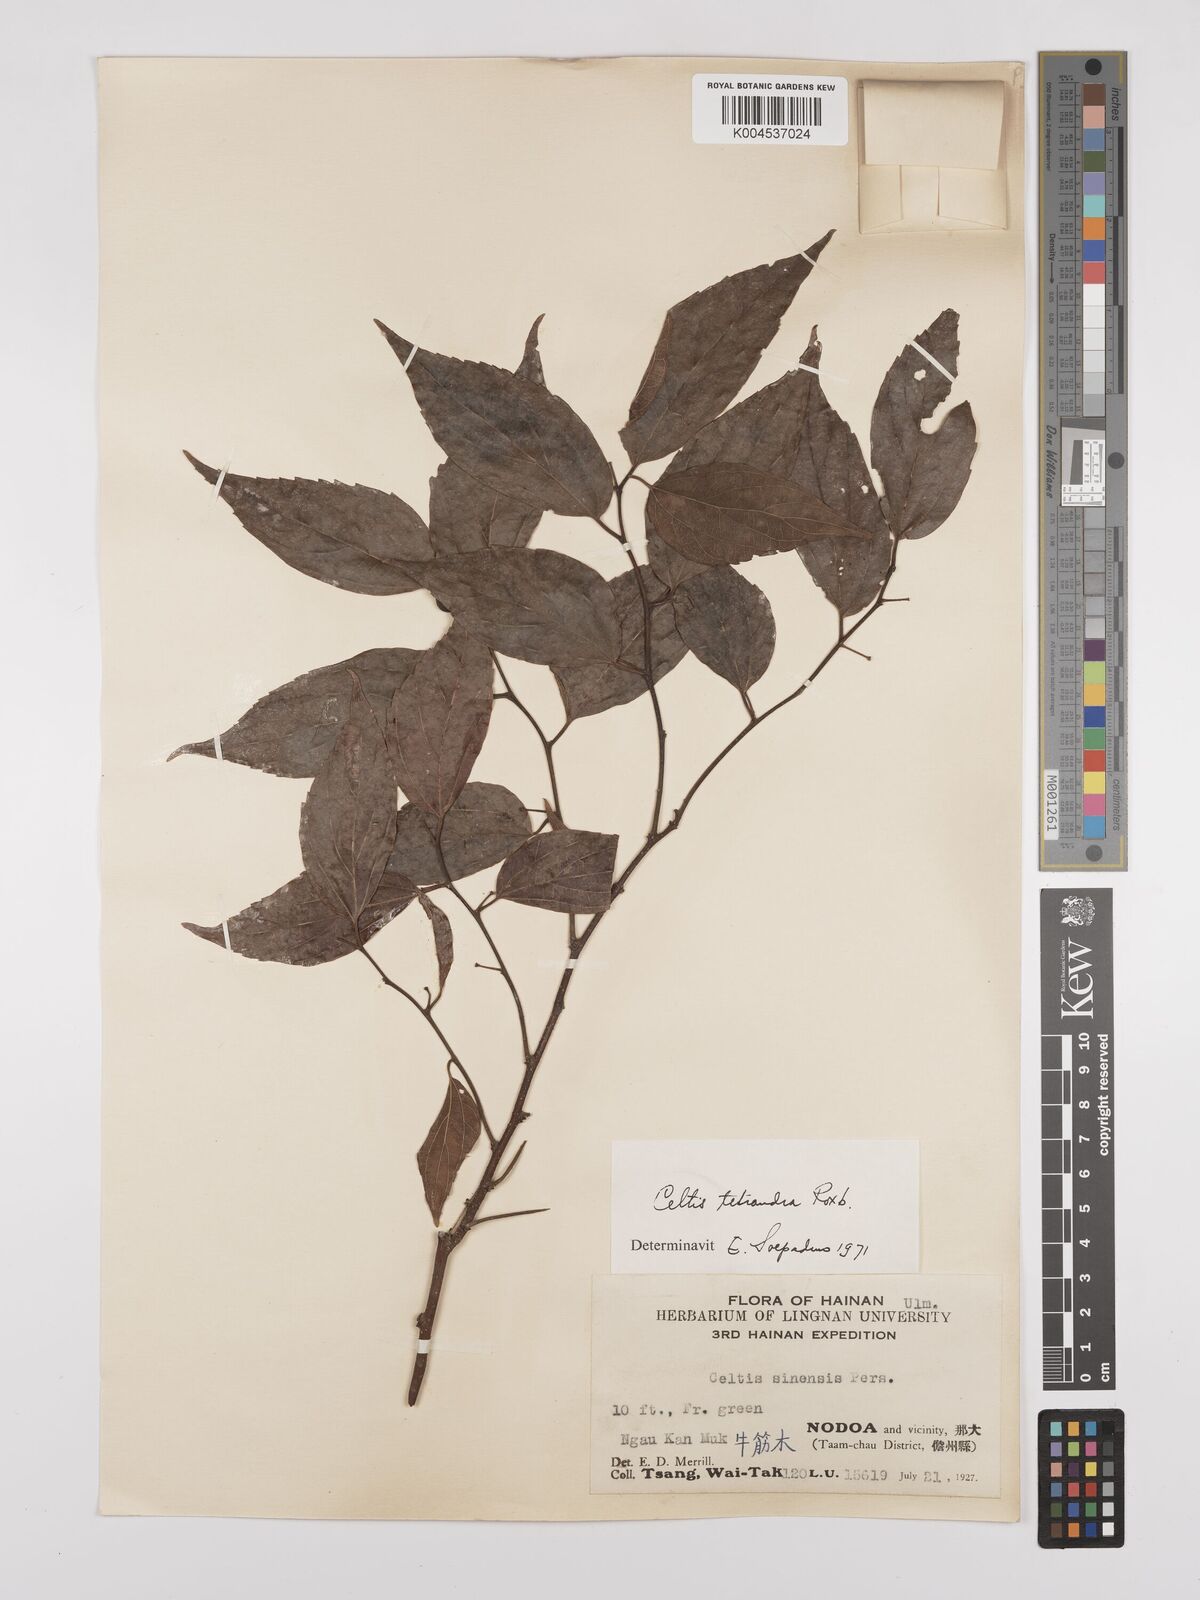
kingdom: Plantae
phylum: Tracheophyta
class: Magnoliopsida
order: Rosales
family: Cannabaceae
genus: Celtis
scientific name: Celtis tetrandra
